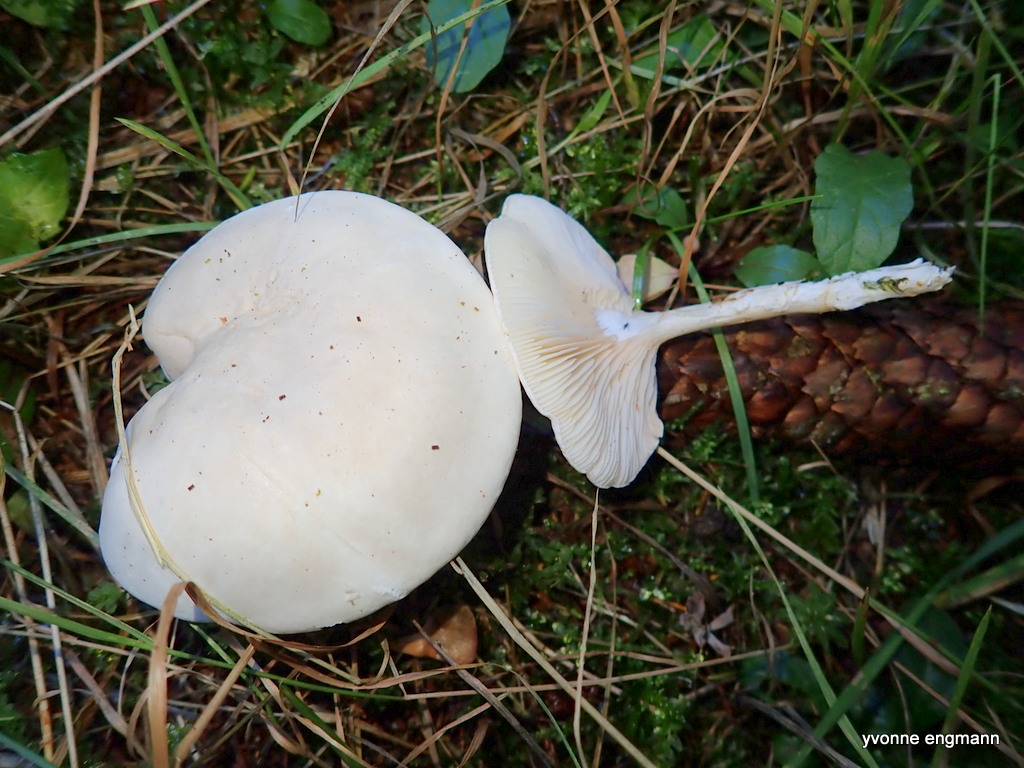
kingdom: Fungi
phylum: Basidiomycota
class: Agaricomycetes
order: Agaricales
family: Entolomataceae
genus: Clitopilus
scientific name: Clitopilus prunulus
